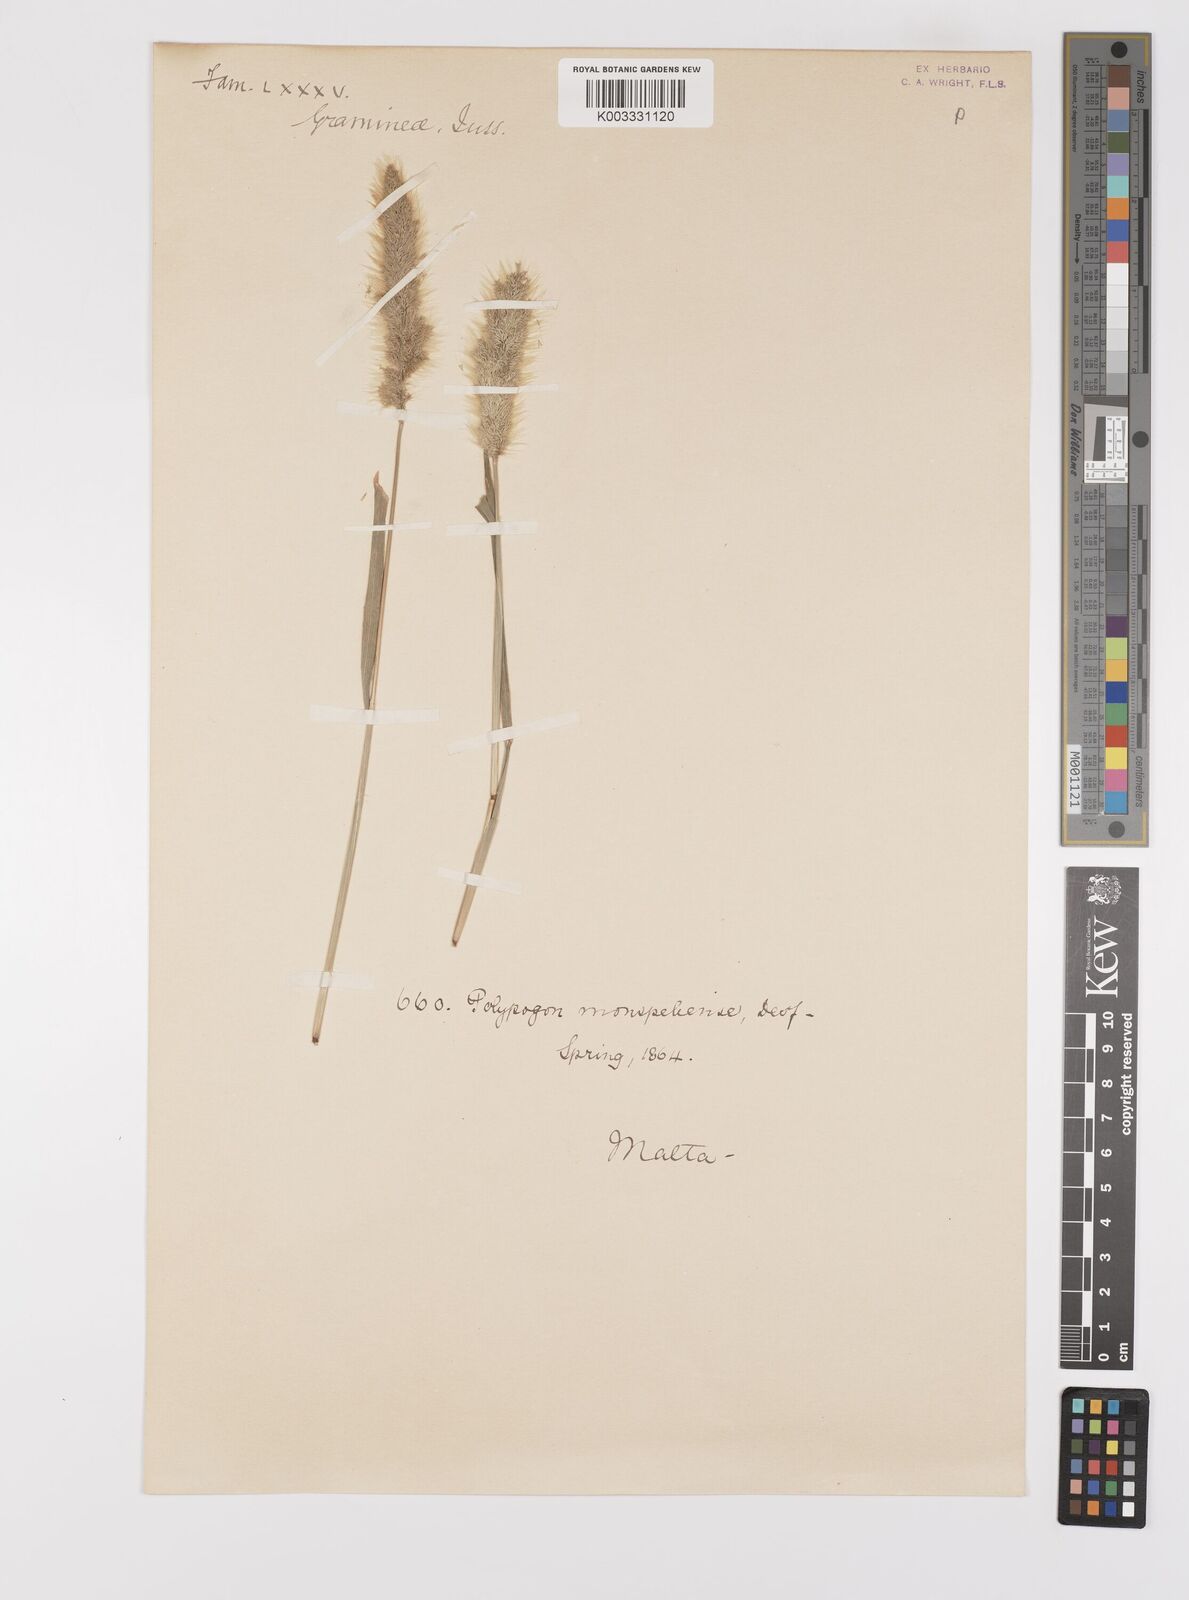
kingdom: Plantae
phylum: Tracheophyta
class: Liliopsida
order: Poales
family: Poaceae
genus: Polypogon
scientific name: Polypogon monspeliensis
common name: Annual rabbitsfoot grass
